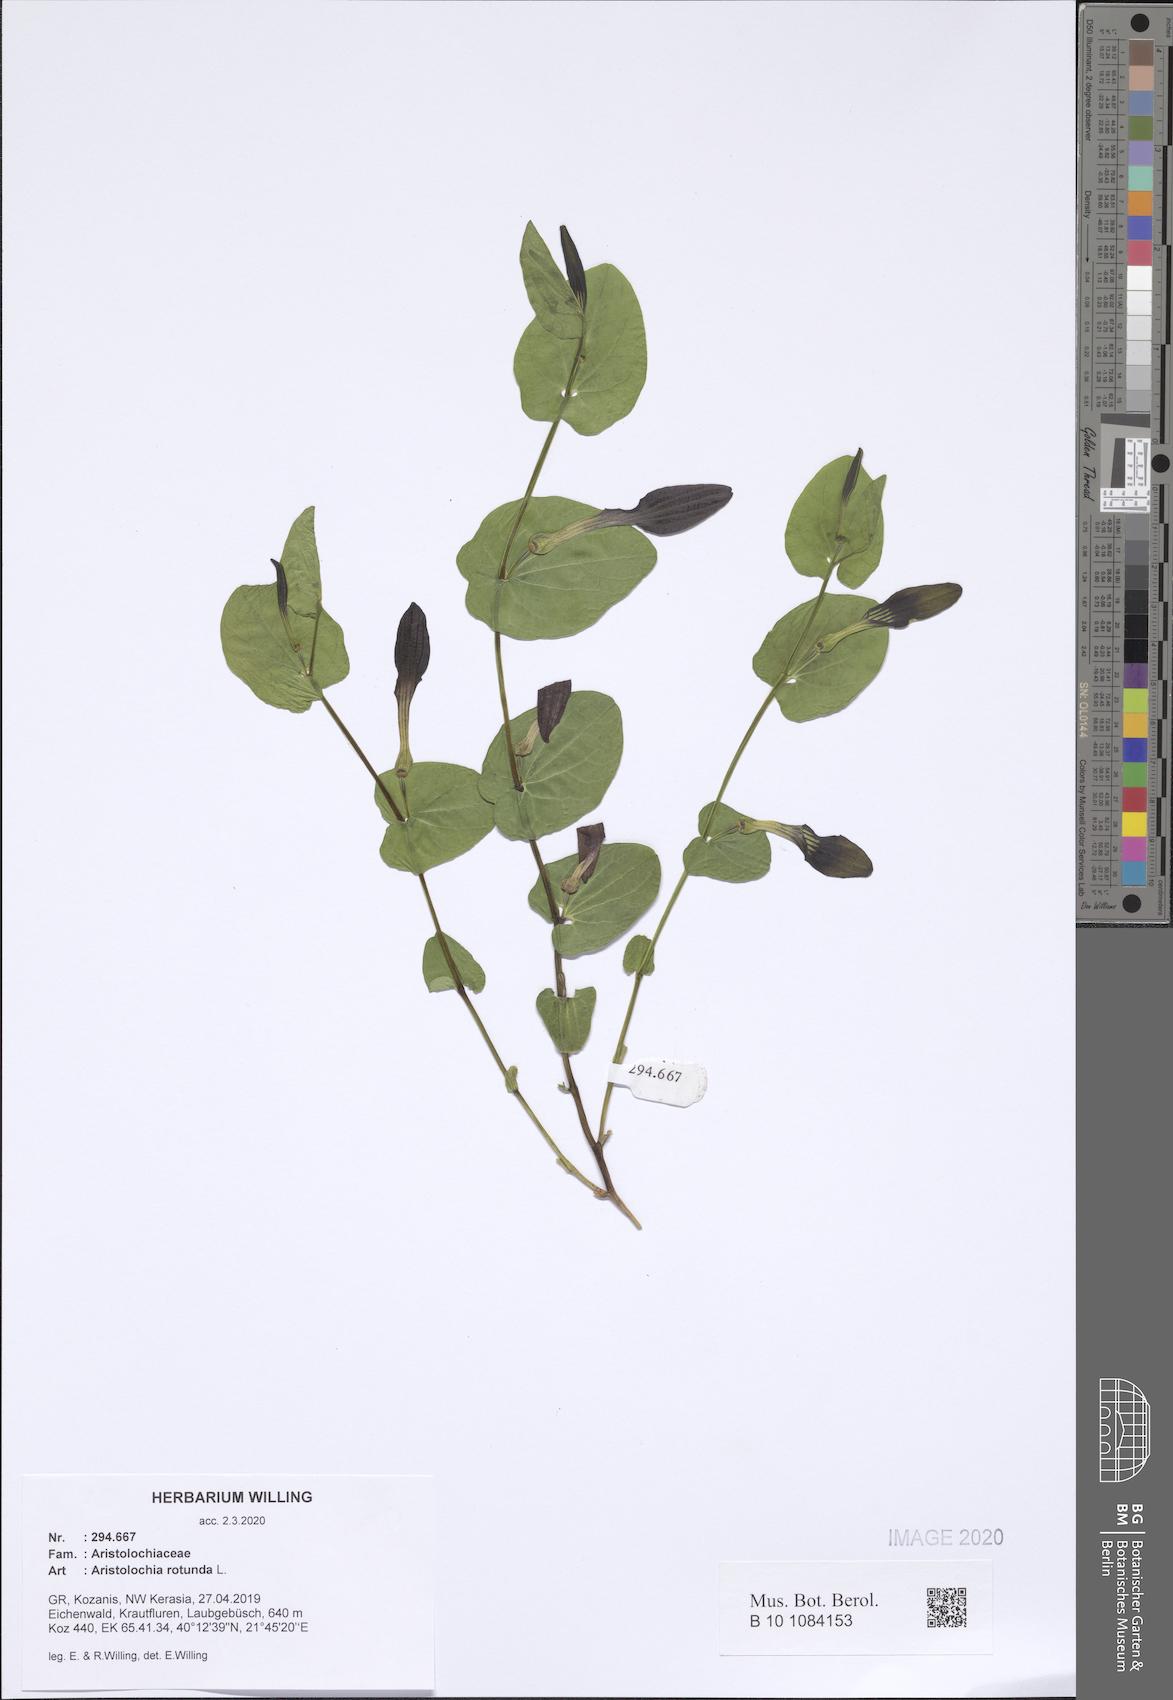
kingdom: Plantae
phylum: Tracheophyta
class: Magnoliopsida
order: Piperales
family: Aristolochiaceae
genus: Aristolochia
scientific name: Aristolochia rotunda
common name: Smearwort
